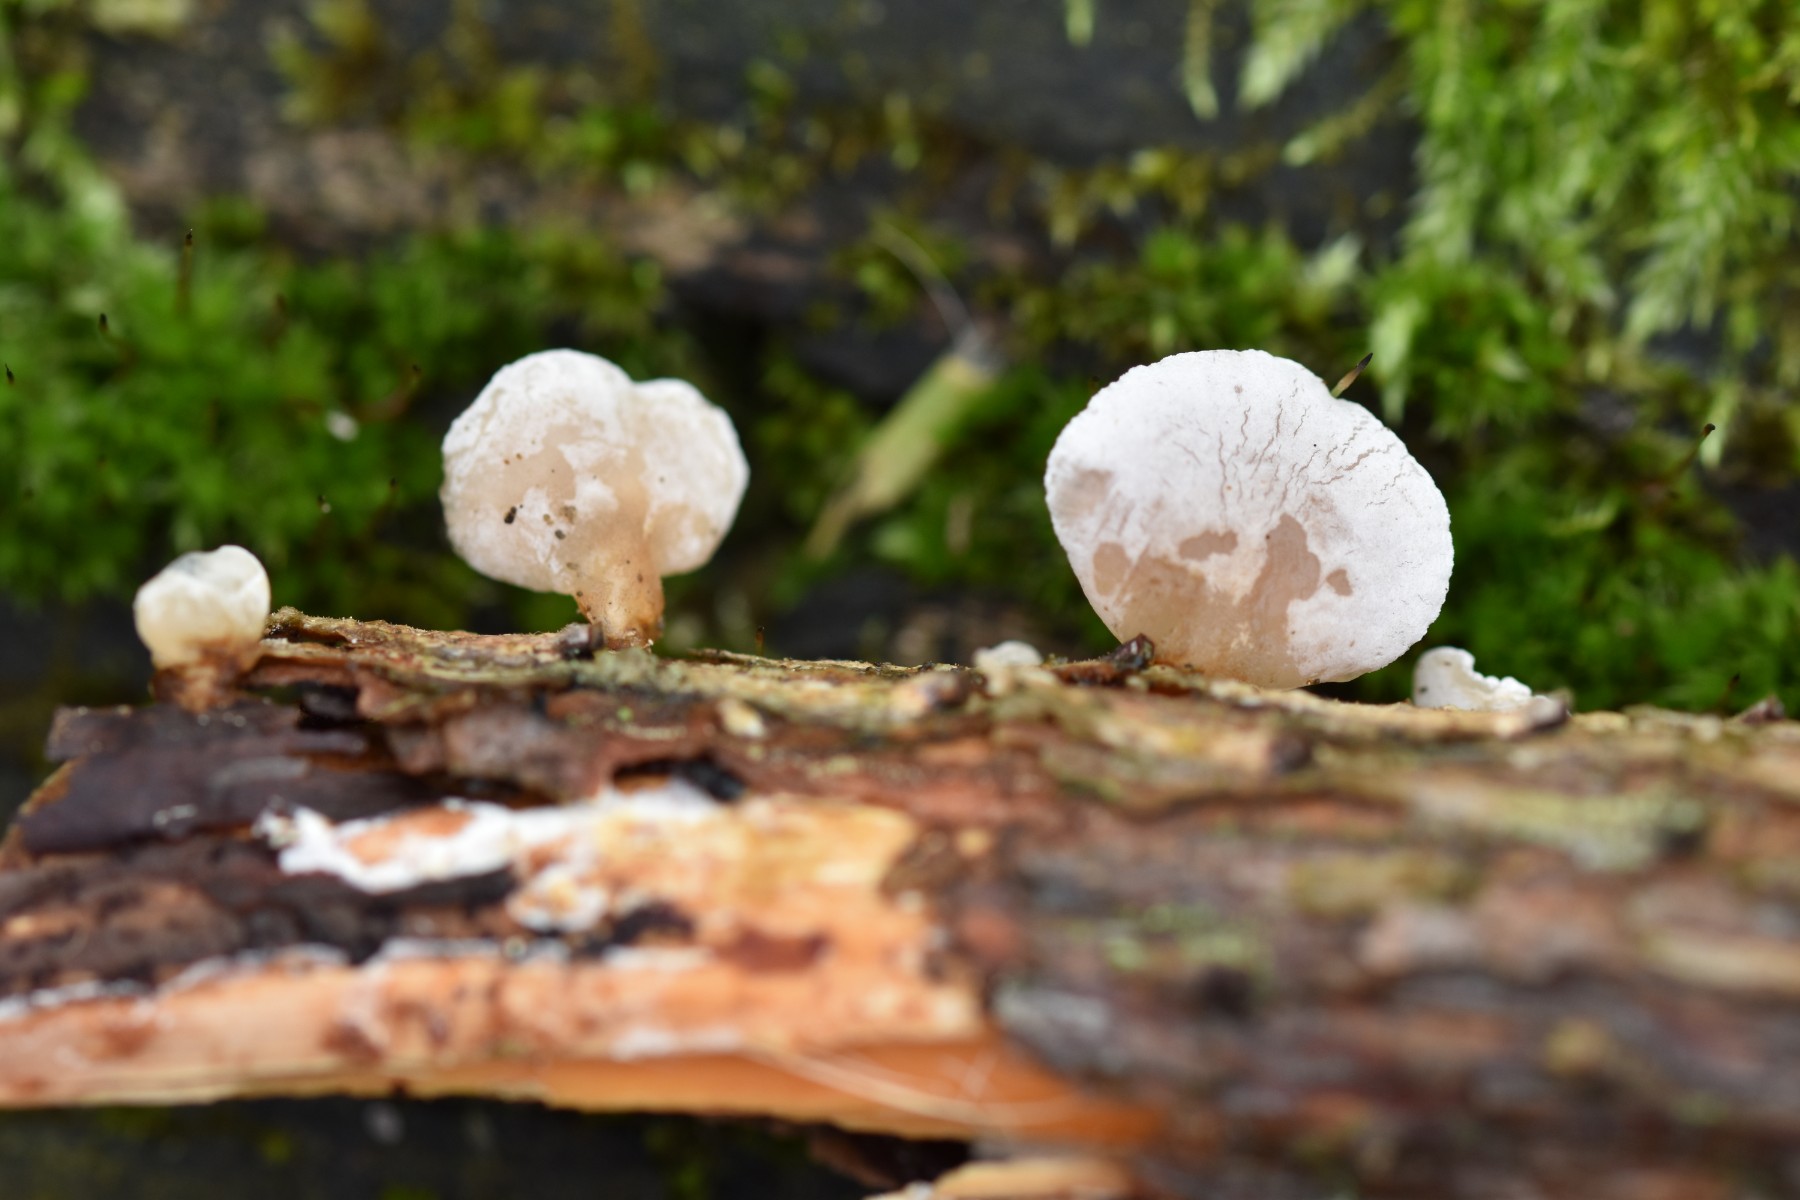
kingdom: Fungi
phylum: Basidiomycota
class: Agaricomycetes
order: Agaricales
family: Mycenaceae
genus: Panellus
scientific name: Panellus mitis
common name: mild epaulethat
